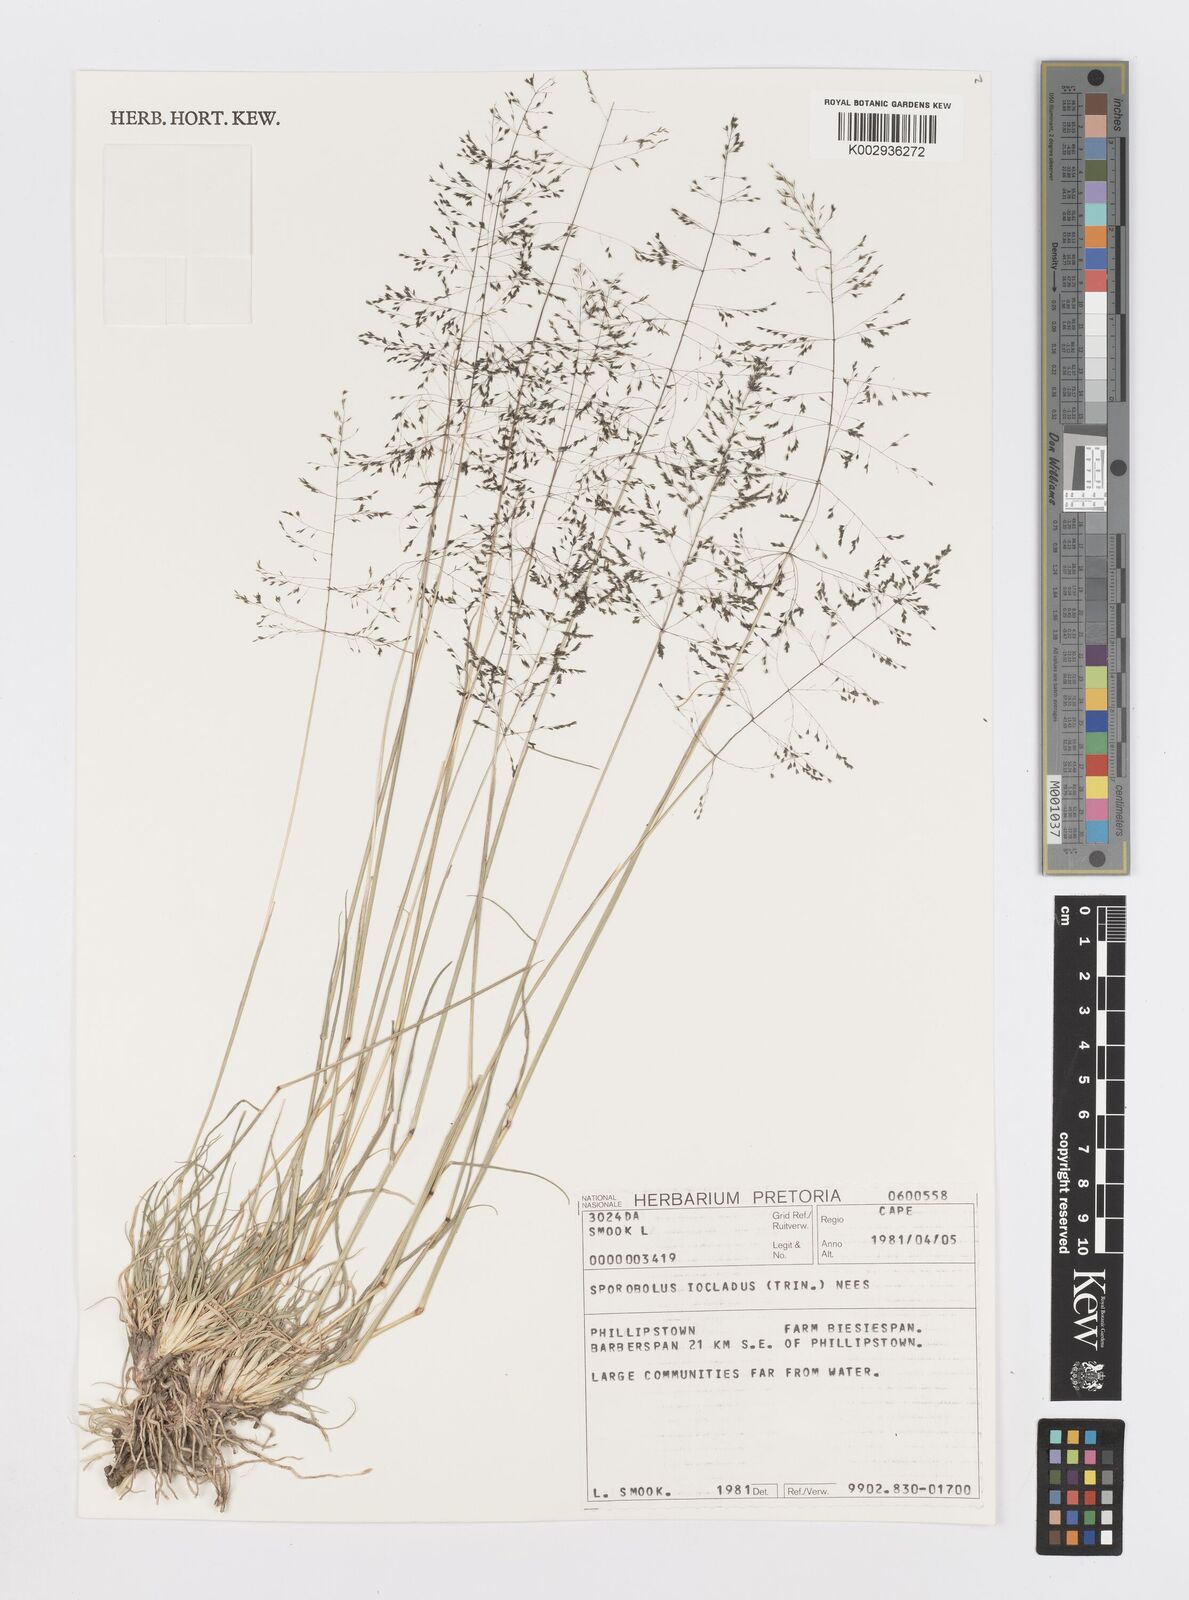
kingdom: Plantae
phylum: Tracheophyta
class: Liliopsida
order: Poales
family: Poaceae
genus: Sporobolus
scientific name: Sporobolus ioclados
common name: Pan dropseed
